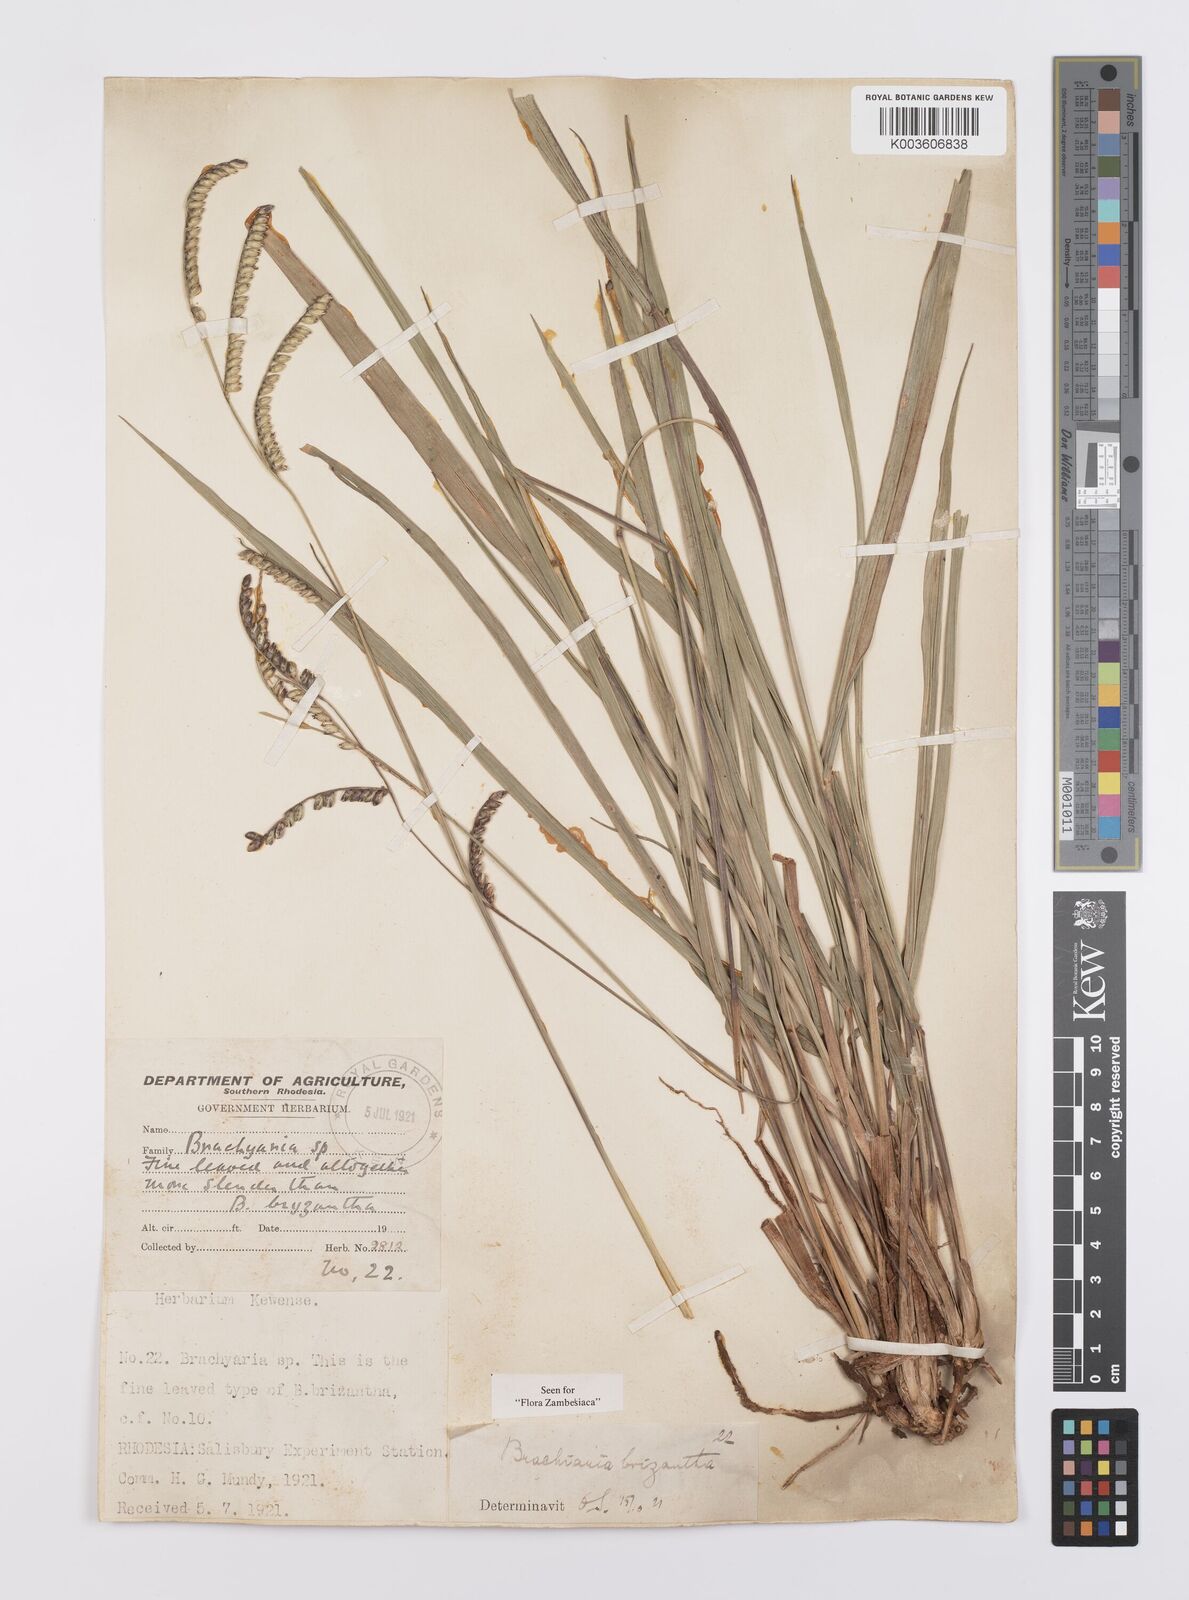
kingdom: Plantae
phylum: Tracheophyta
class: Liliopsida
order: Poales
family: Poaceae
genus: Urochloa
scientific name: Urochloa brizantha
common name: Palisade signalgrass
